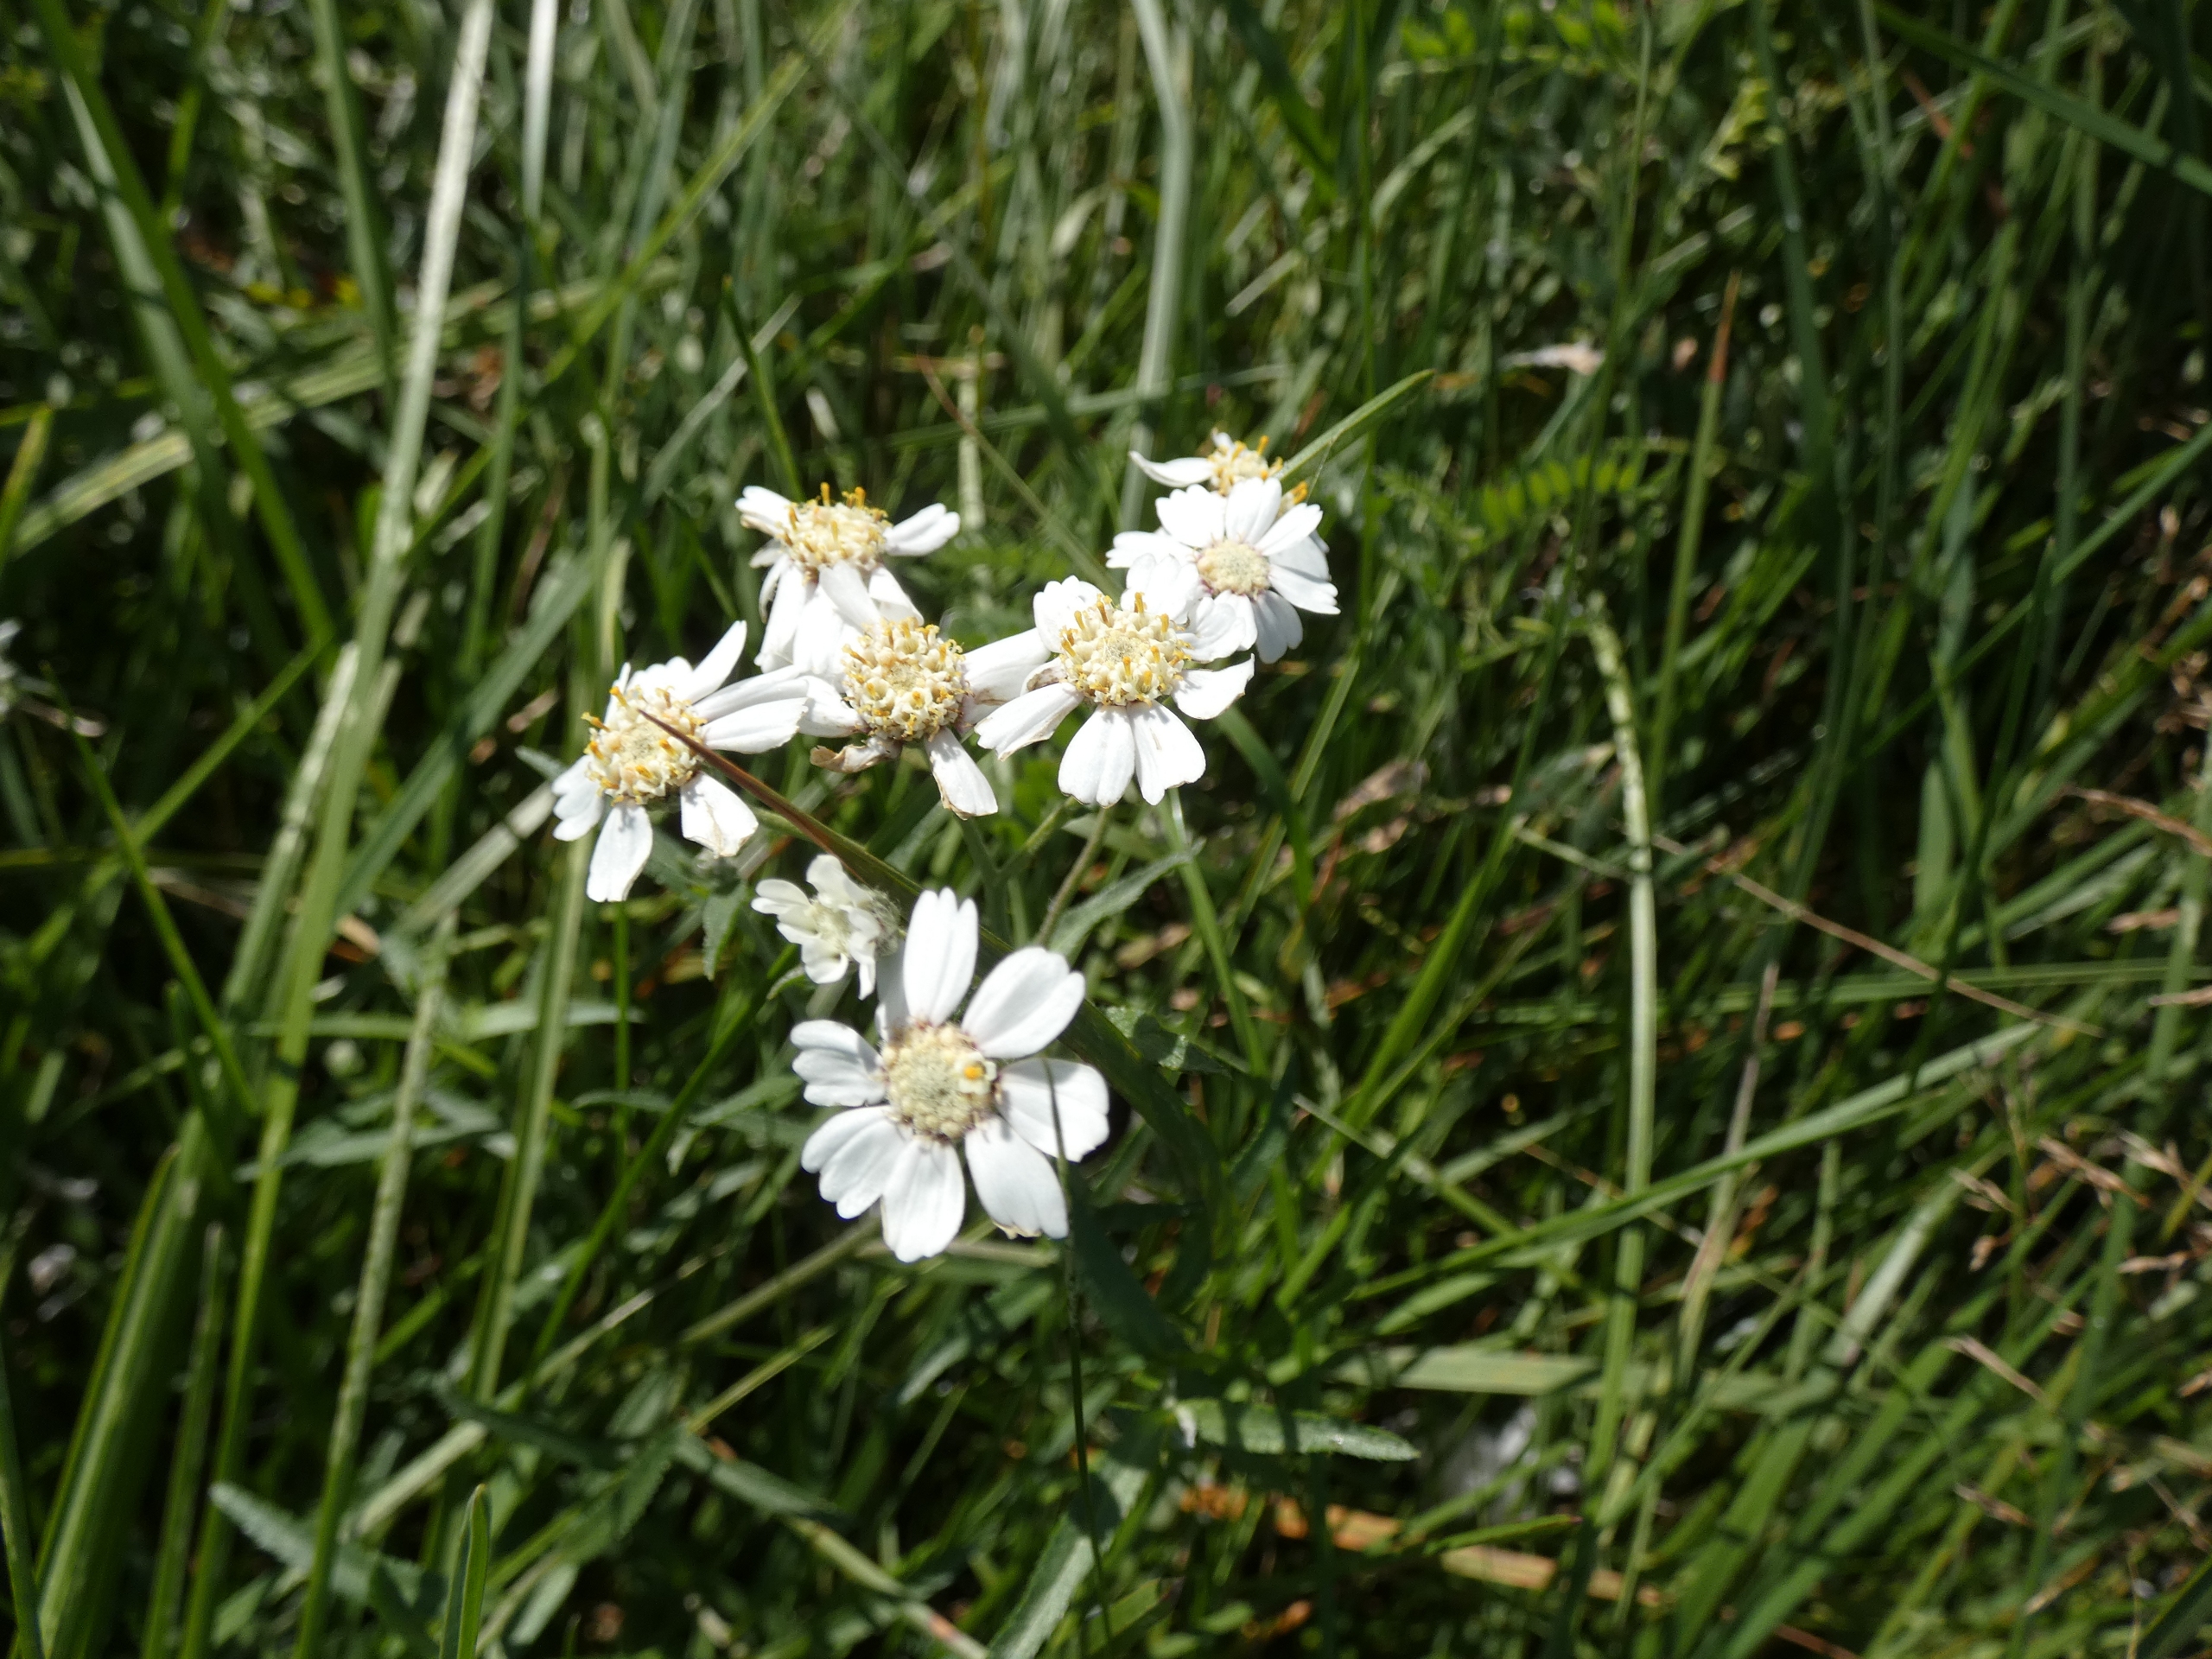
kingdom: Plantae
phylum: Tracheophyta
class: Magnoliopsida
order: Asterales
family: Asteraceae
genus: Achillea
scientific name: Achillea ptarmica
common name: Nyse-røllike
